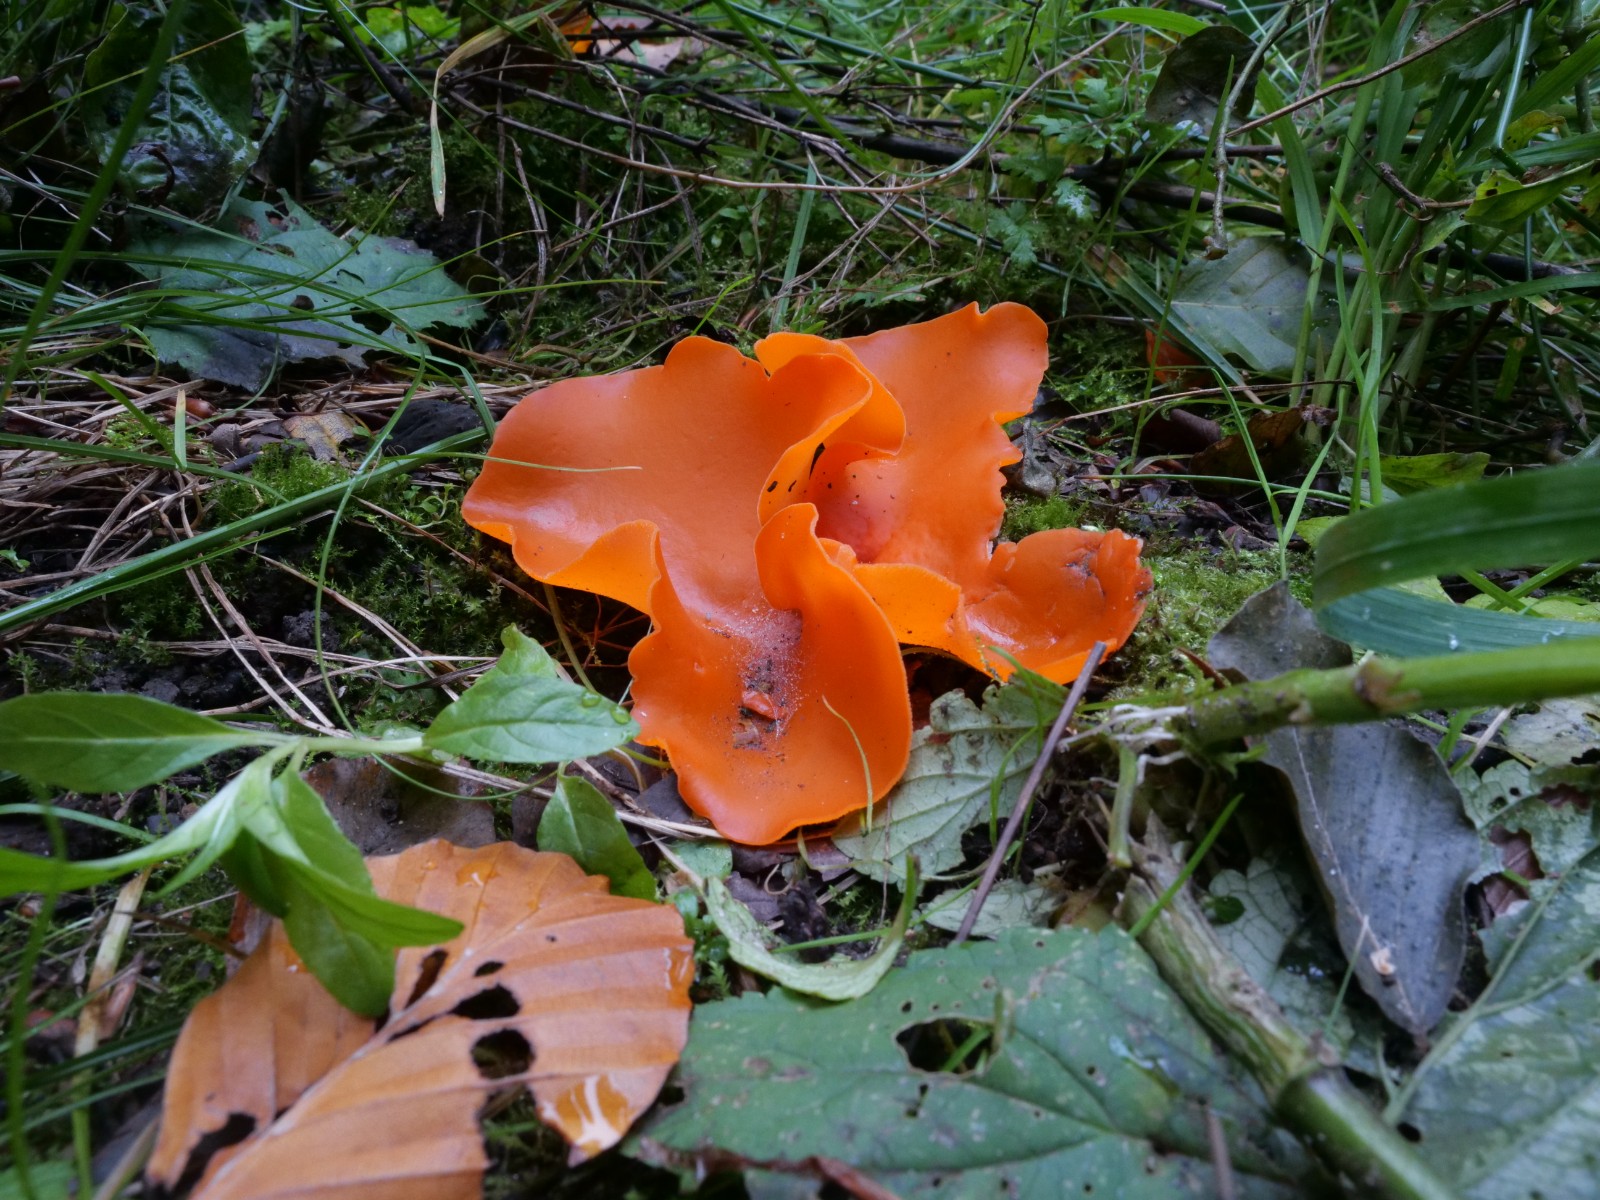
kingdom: Fungi
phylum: Ascomycota
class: Pezizomycetes
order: Pezizales
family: Pyronemataceae
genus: Aleuria
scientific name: Aleuria aurantia
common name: almindelig orangebæger
